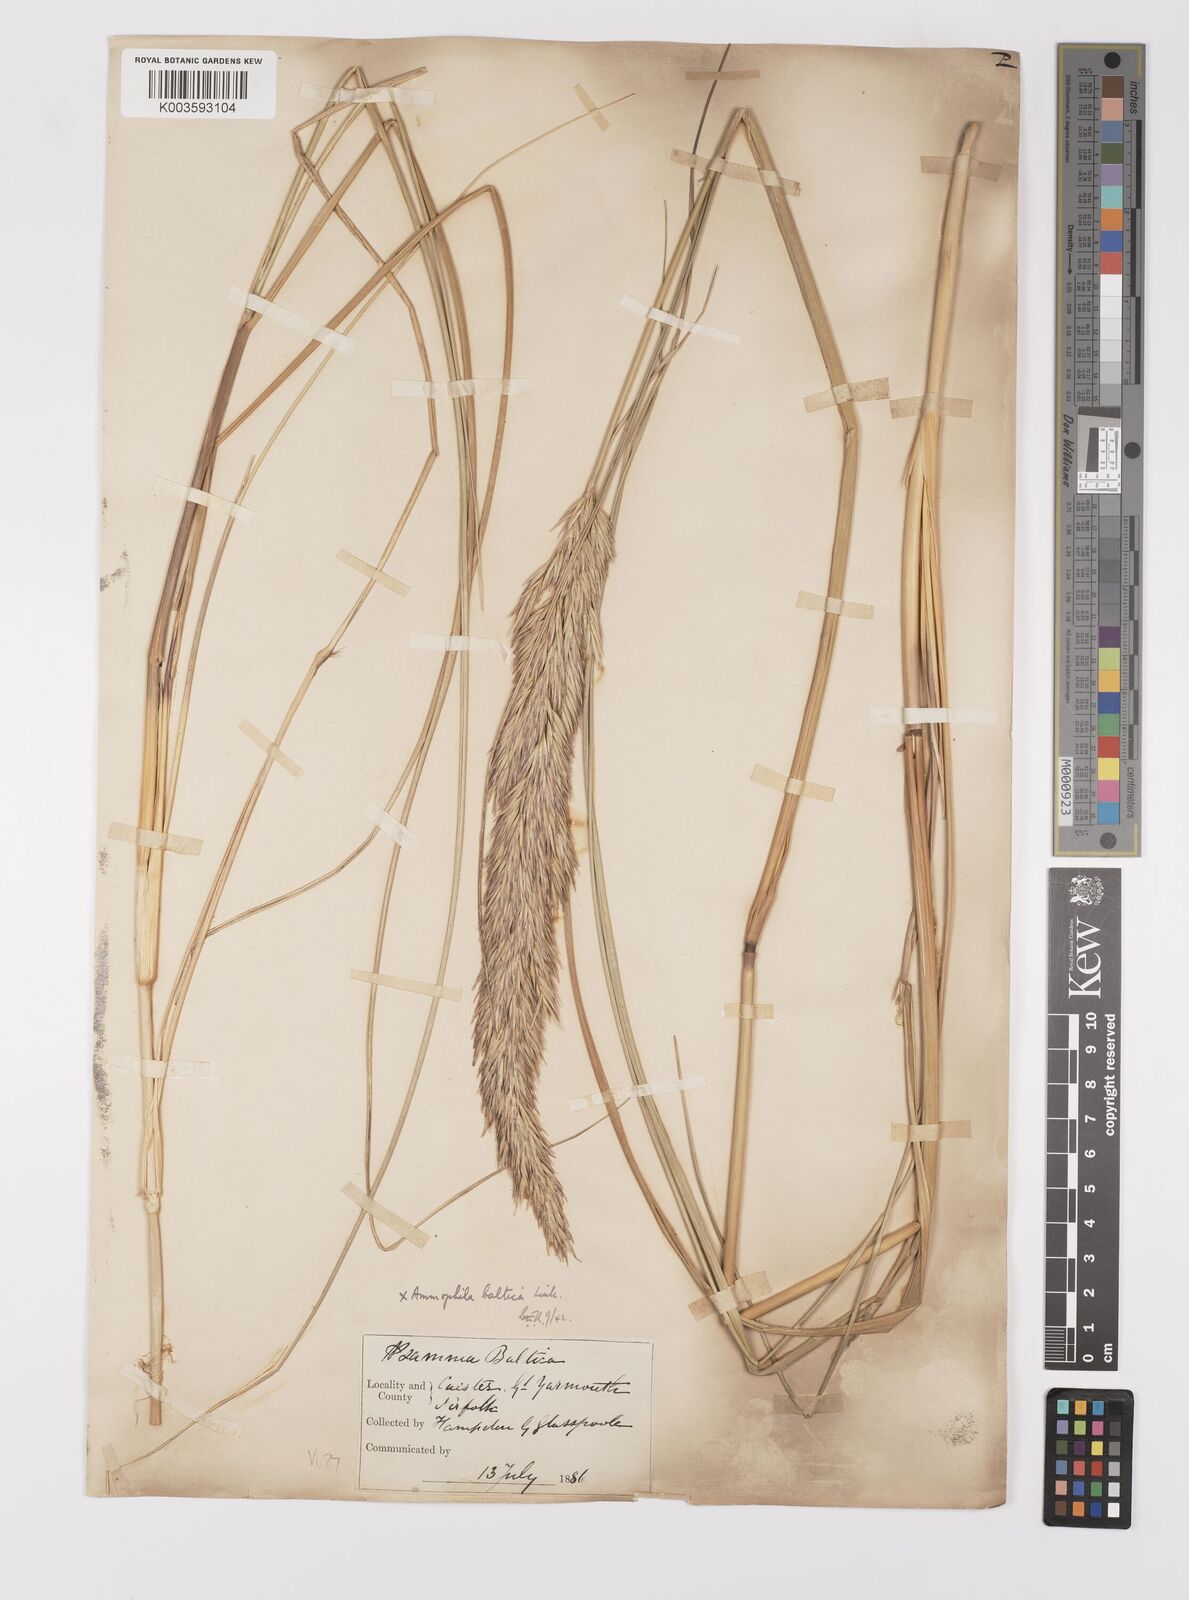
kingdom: Plantae
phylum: Tracheophyta
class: Liliopsida
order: Poales
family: Poaceae
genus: Calamagrostis
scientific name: Calamagrostis baltica
